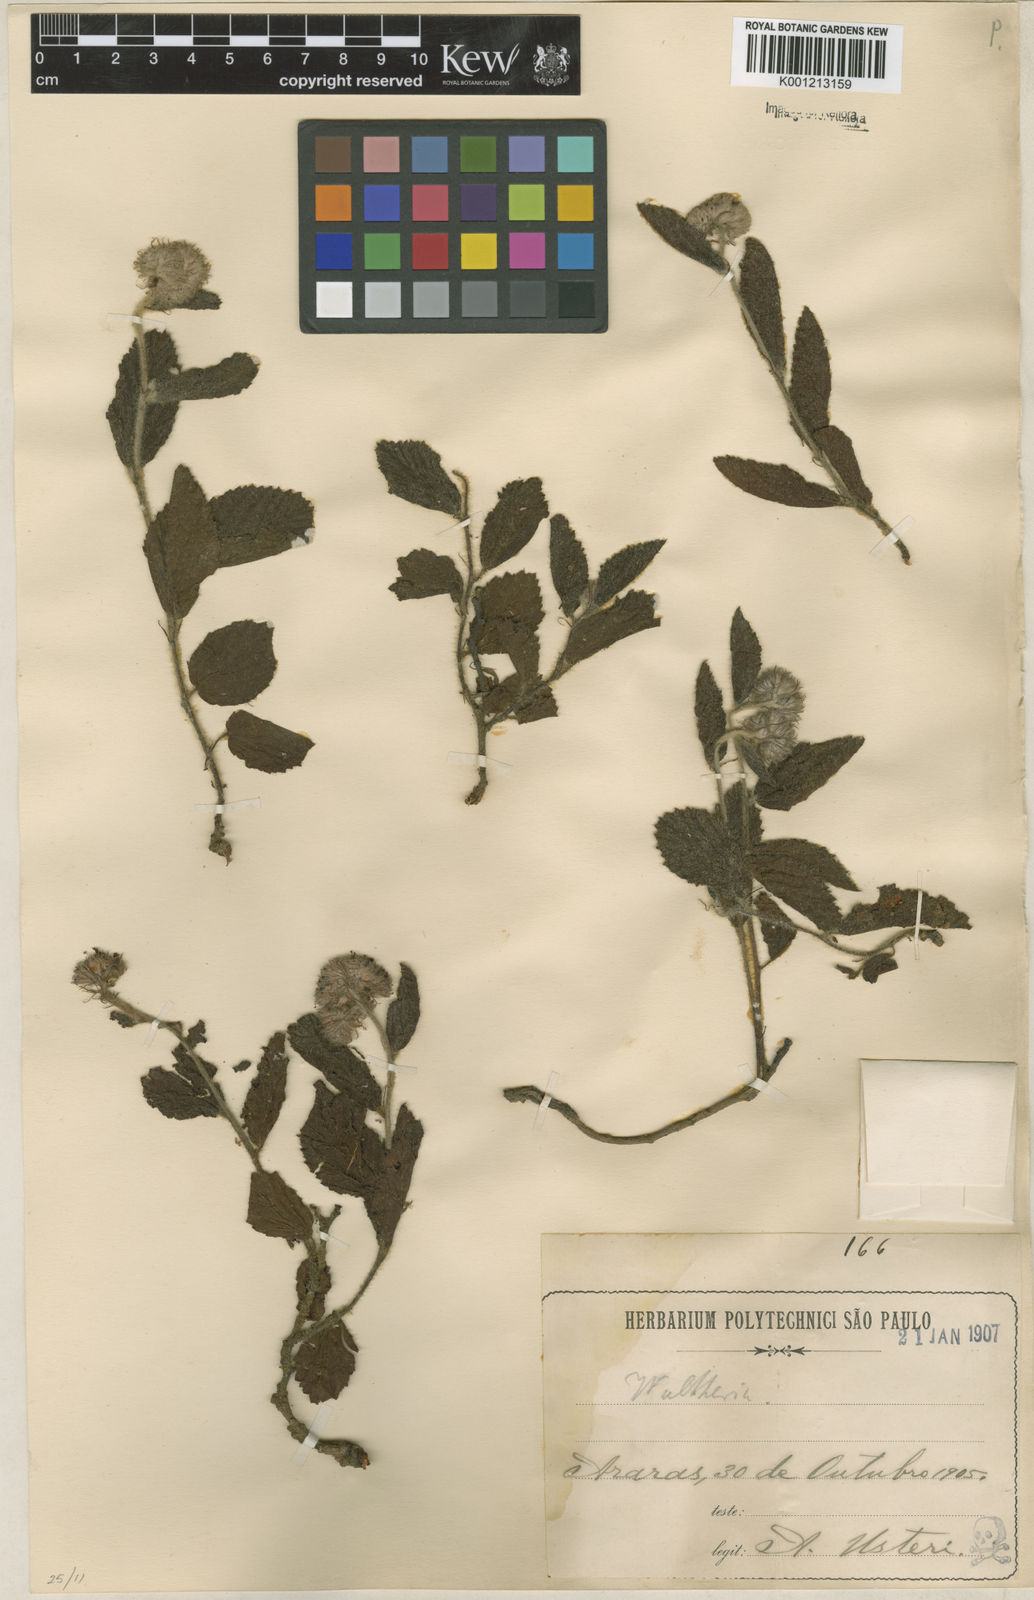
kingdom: Plantae
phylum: Tracheophyta
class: Magnoliopsida
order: Malvales
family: Malvaceae
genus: Waltheria
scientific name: Waltheria communis
